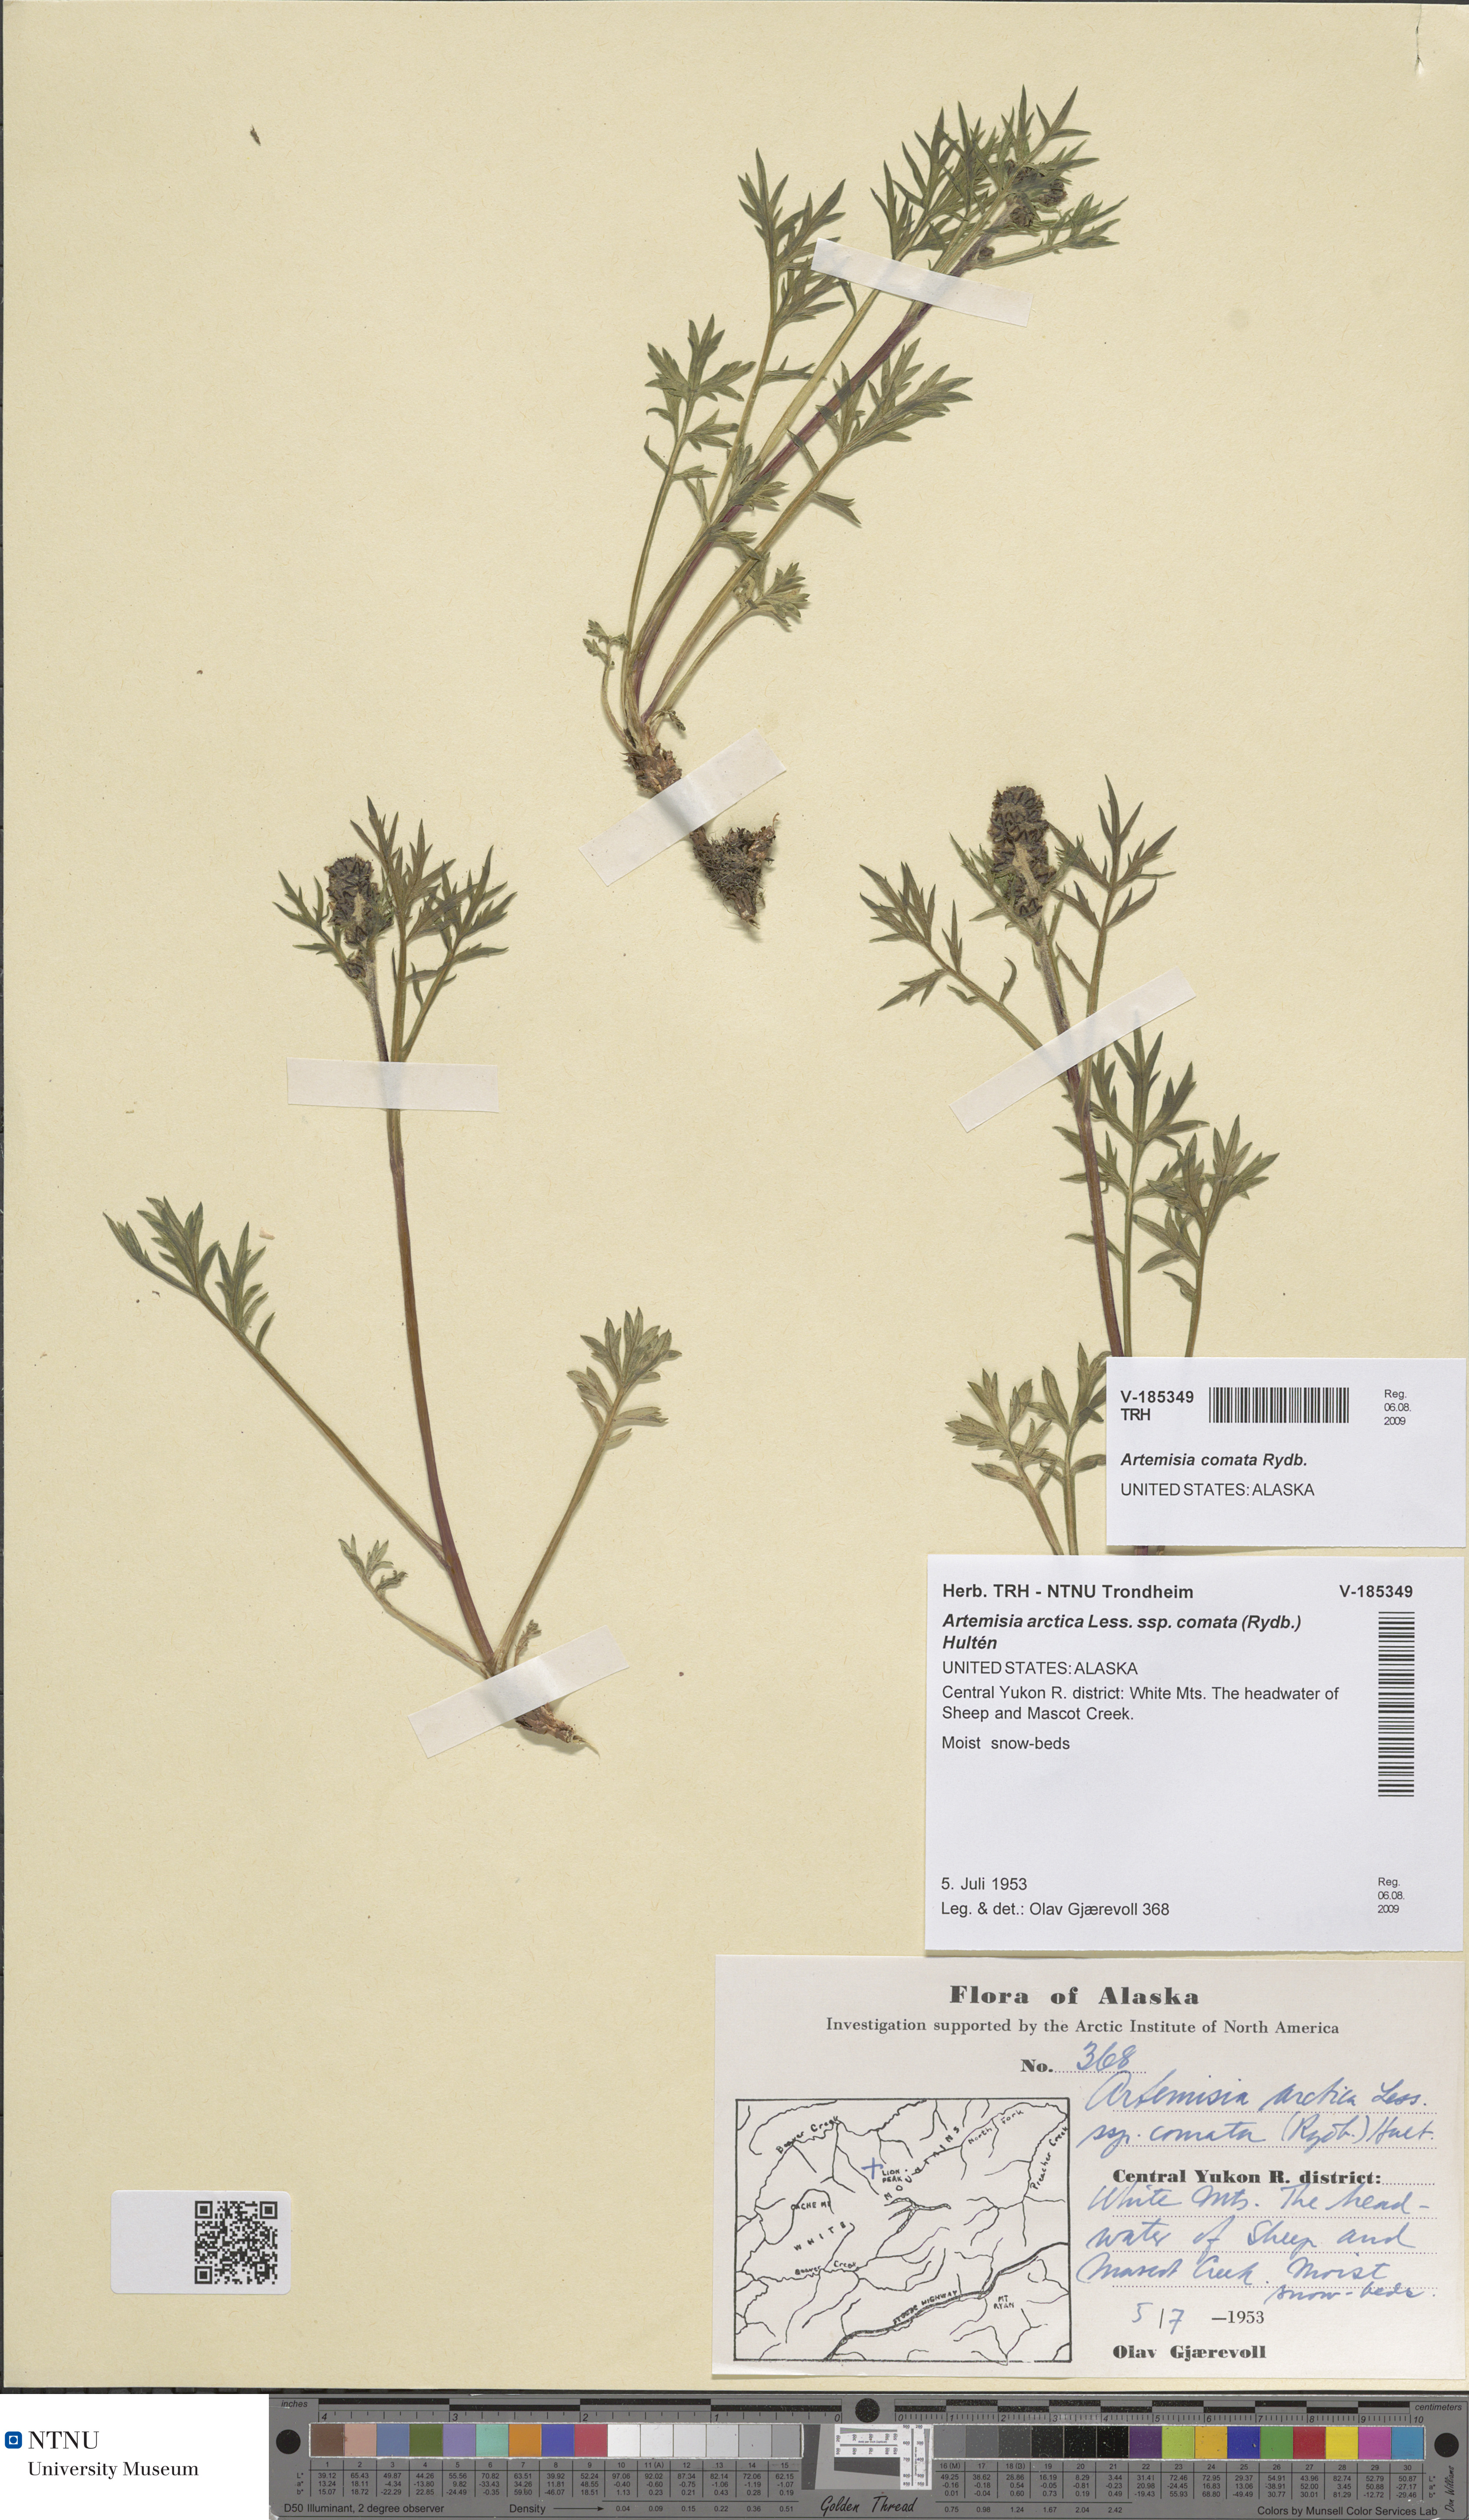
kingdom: Plantae
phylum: Tracheophyta
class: Magnoliopsida
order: Asterales
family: Asteraceae
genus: Artemisia
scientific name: Artemisia norvegica
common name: Norwegian mugwort
